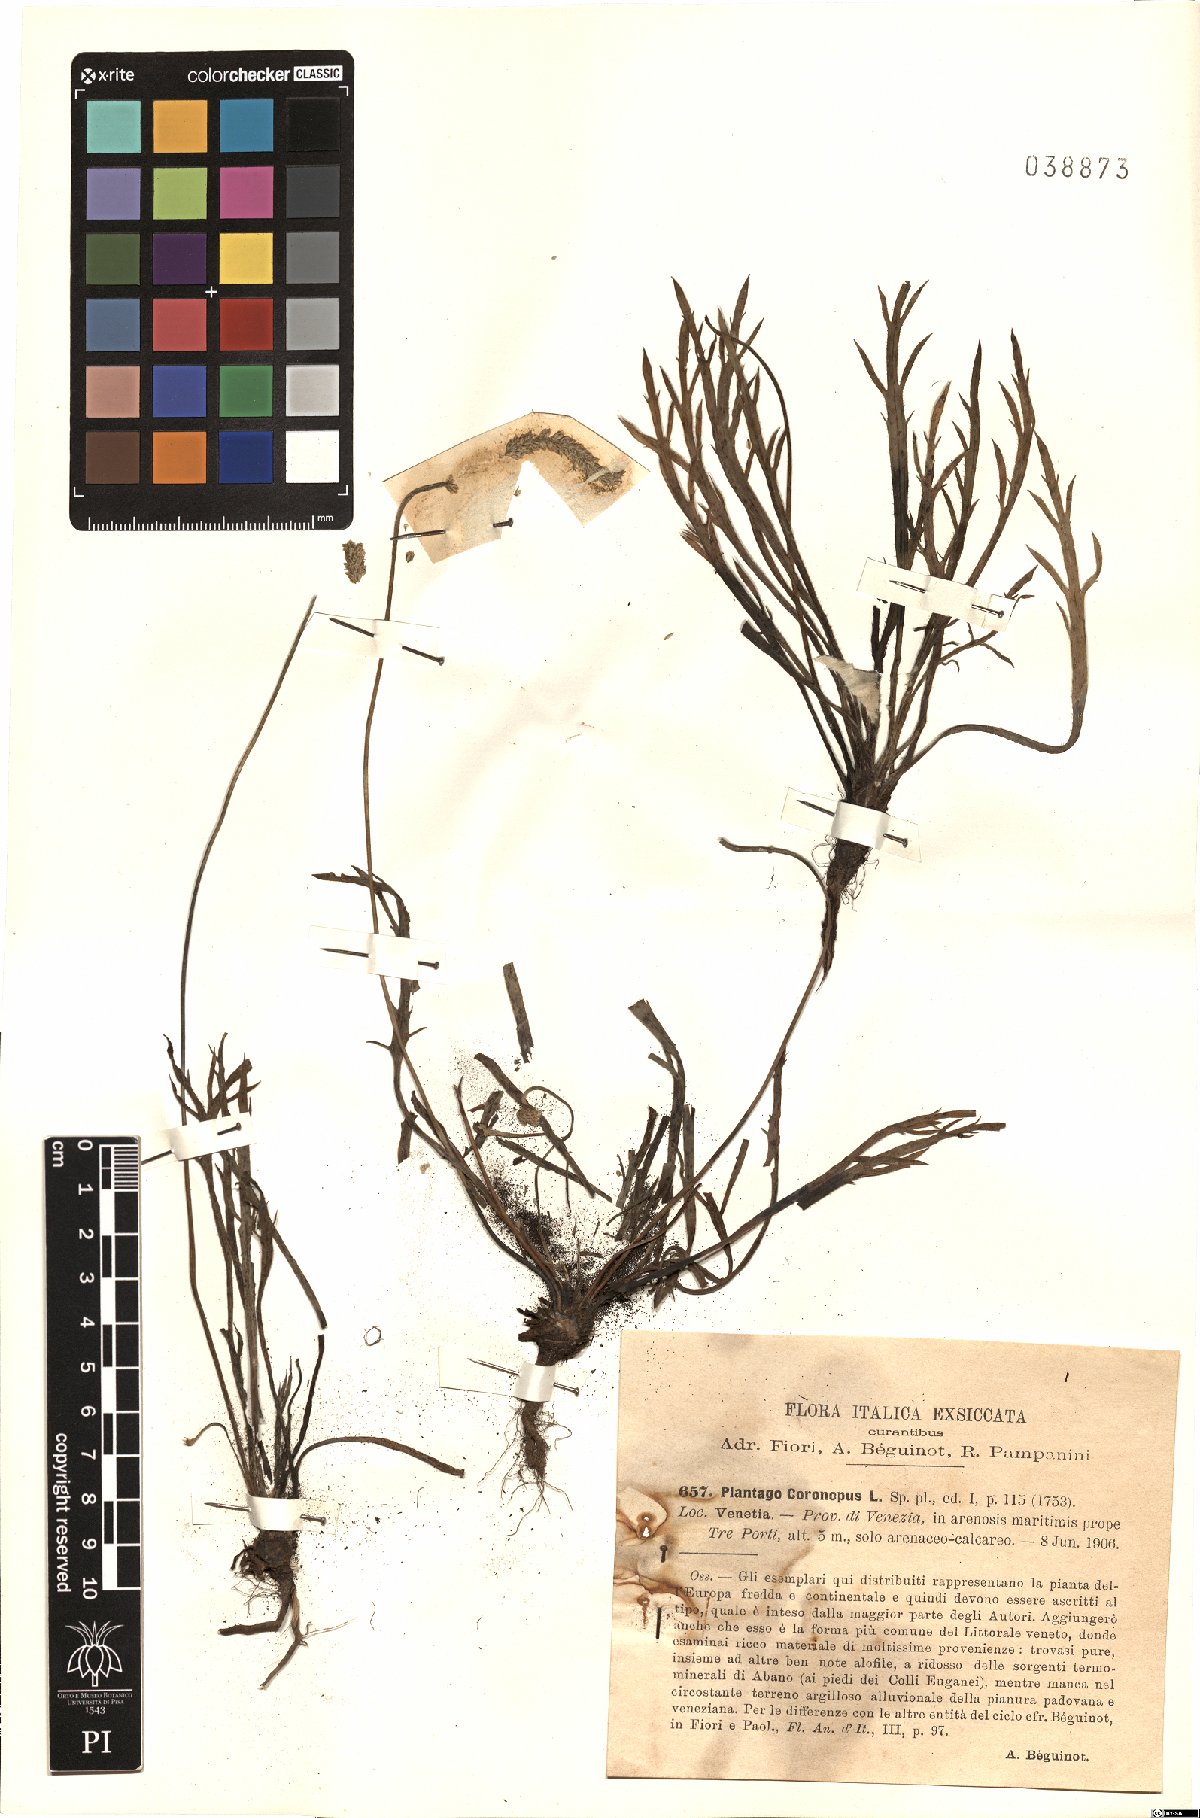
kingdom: Plantae
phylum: Tracheophyta
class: Magnoliopsida
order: Lamiales
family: Plantaginaceae
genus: Plantago
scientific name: Plantago coronopus
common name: Buck's-horn plantain
